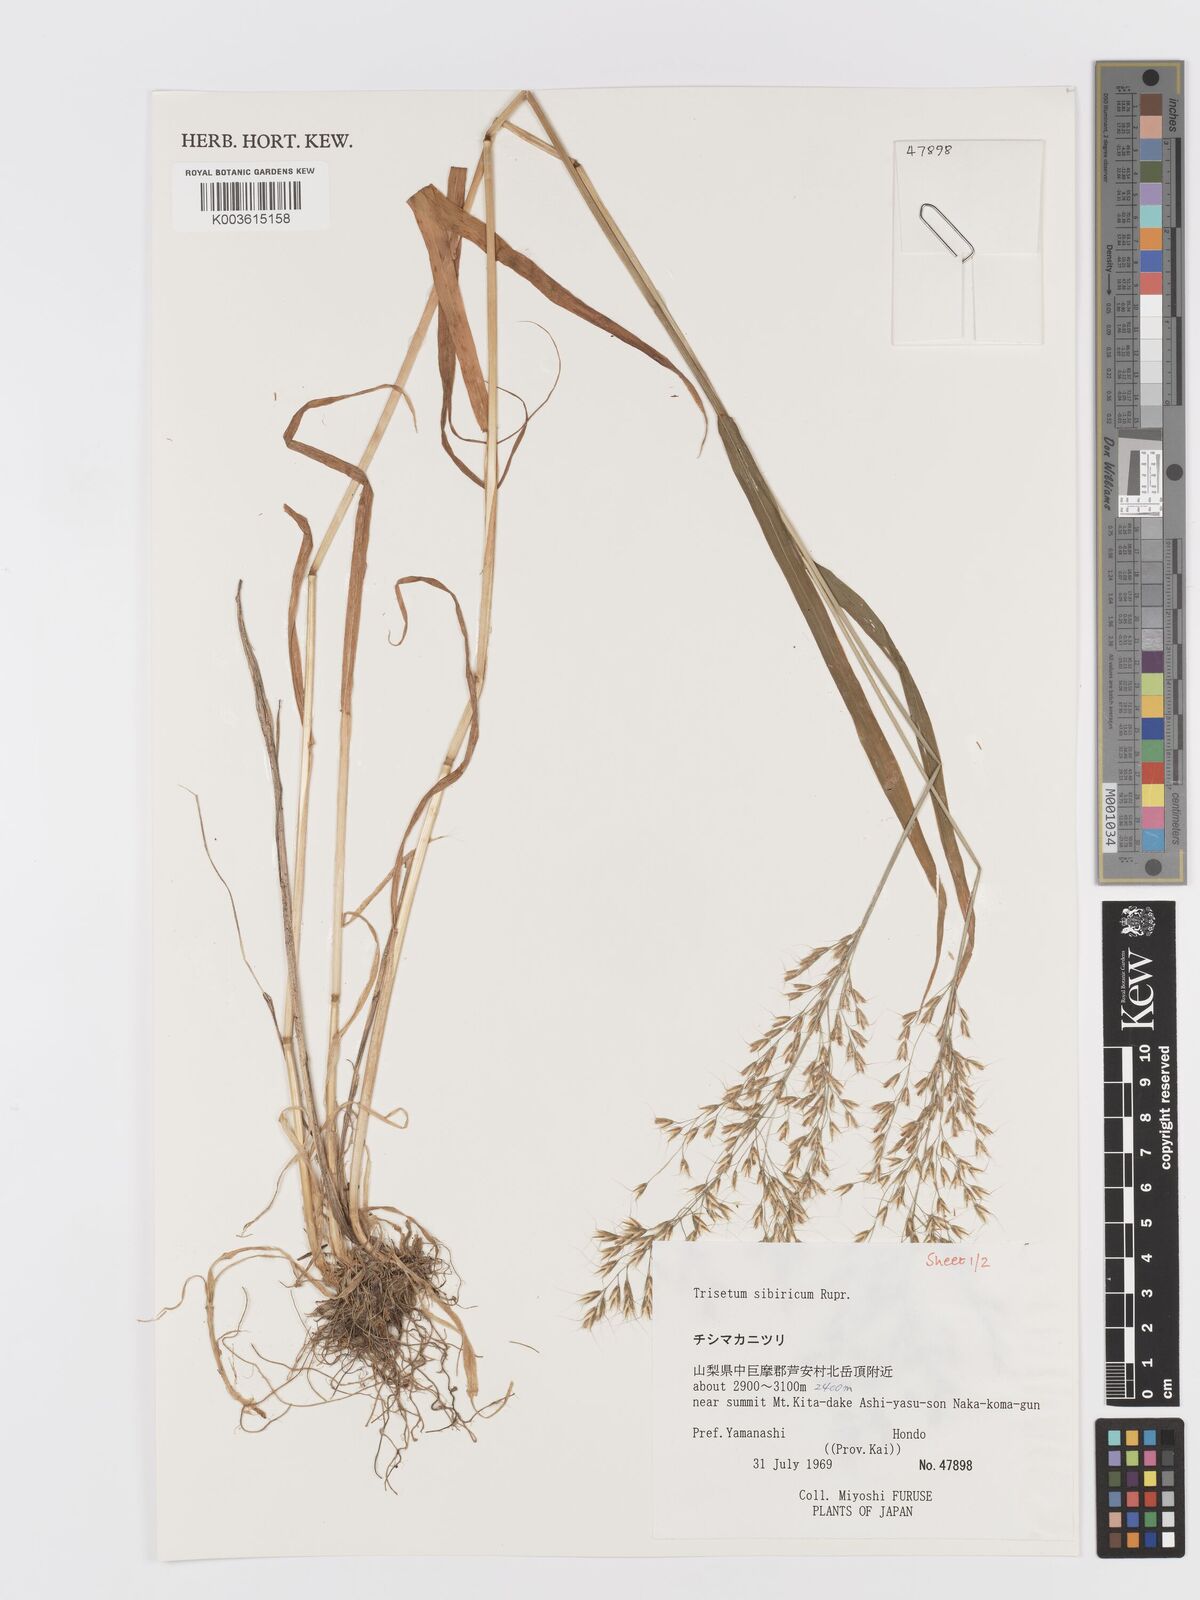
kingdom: Plantae
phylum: Tracheophyta
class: Liliopsida
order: Poales
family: Poaceae
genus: Sibirotrisetum
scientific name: Sibirotrisetum sibiricum
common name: Siberian false oat
